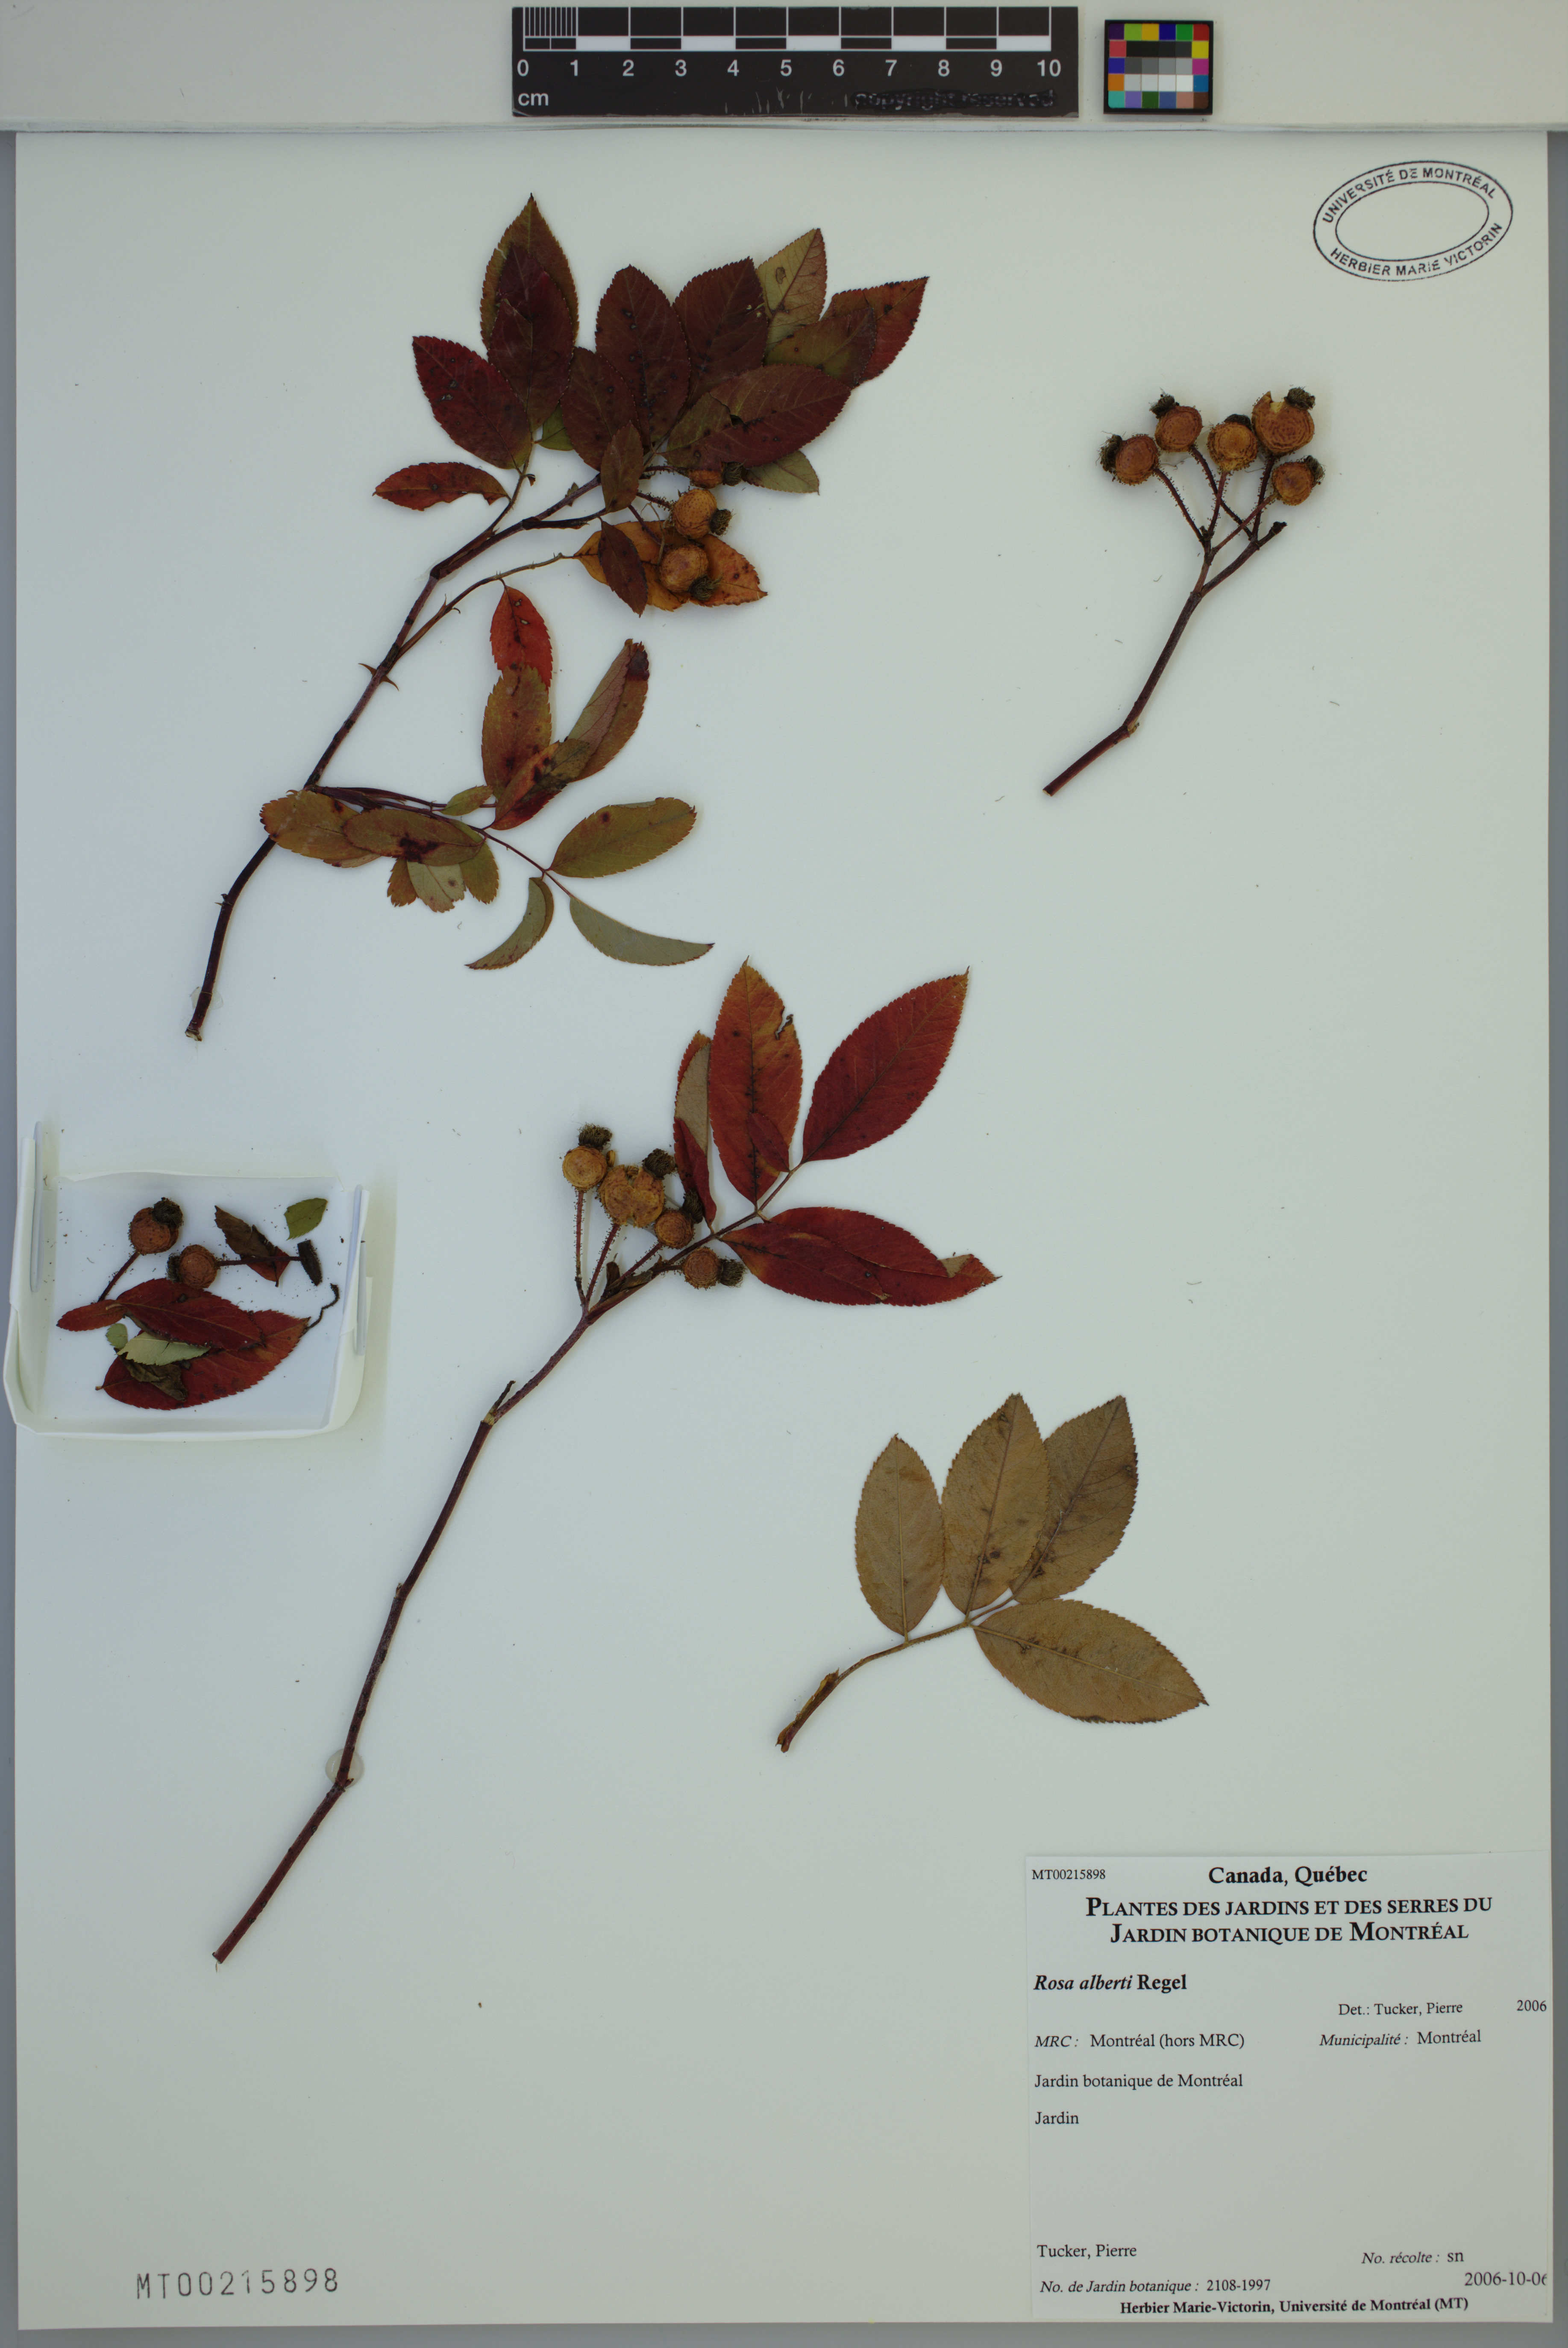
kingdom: Plantae
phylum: Tracheophyta
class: Magnoliopsida
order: Rosales
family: Rosaceae
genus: Rosa
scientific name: Rosa alberti
